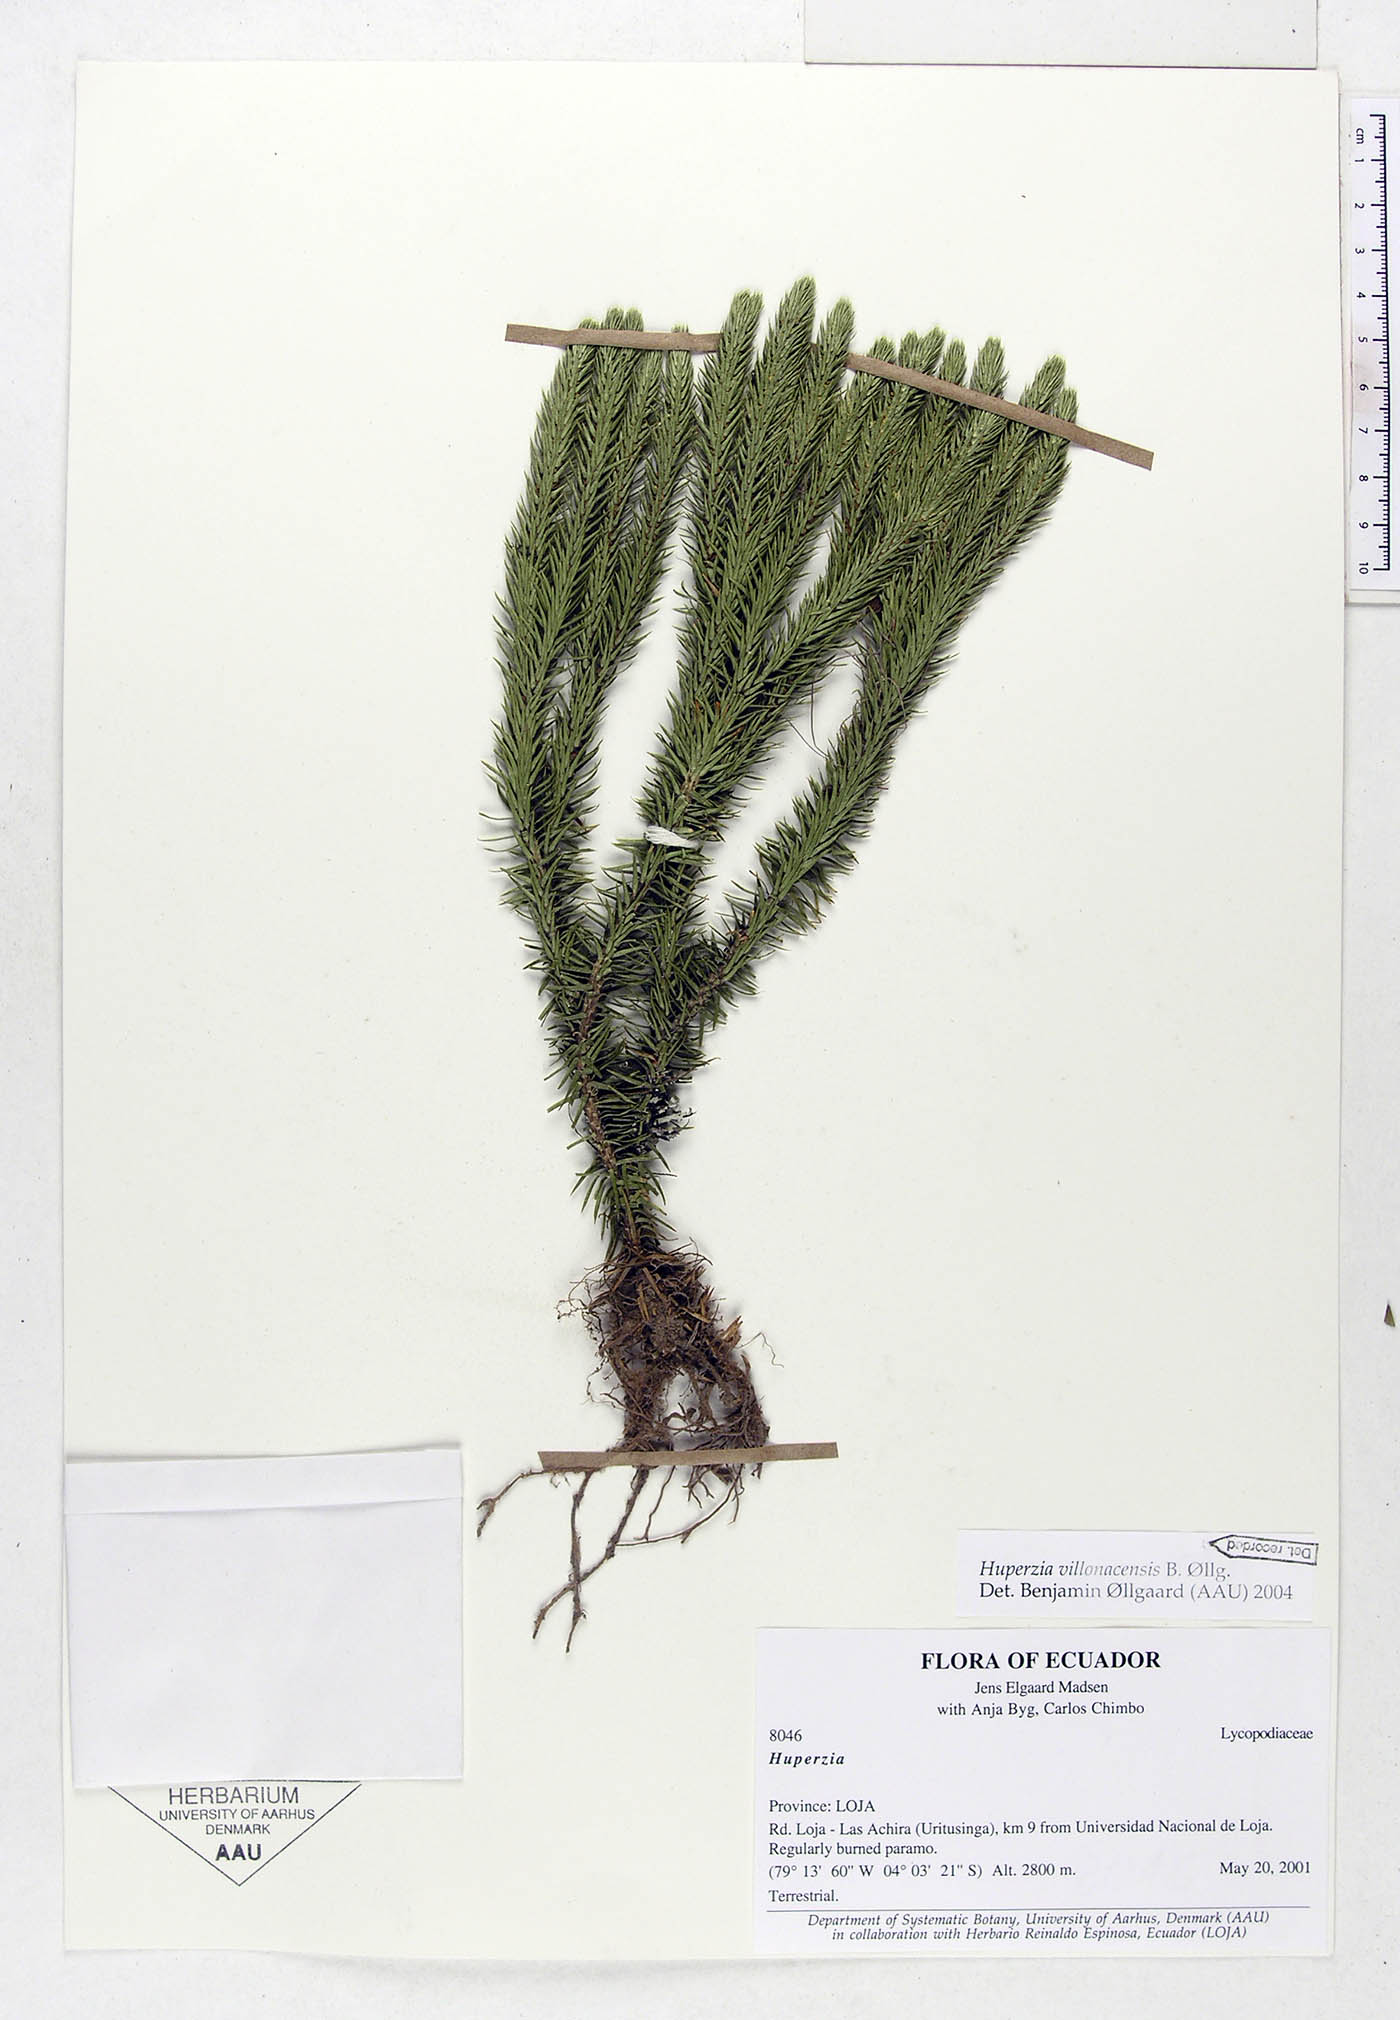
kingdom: Plantae
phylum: Tracheophyta
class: Lycopodiopsida
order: Lycopodiales
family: Lycopodiaceae
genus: Phlegmariurus
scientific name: Phlegmariurus villonacensis
